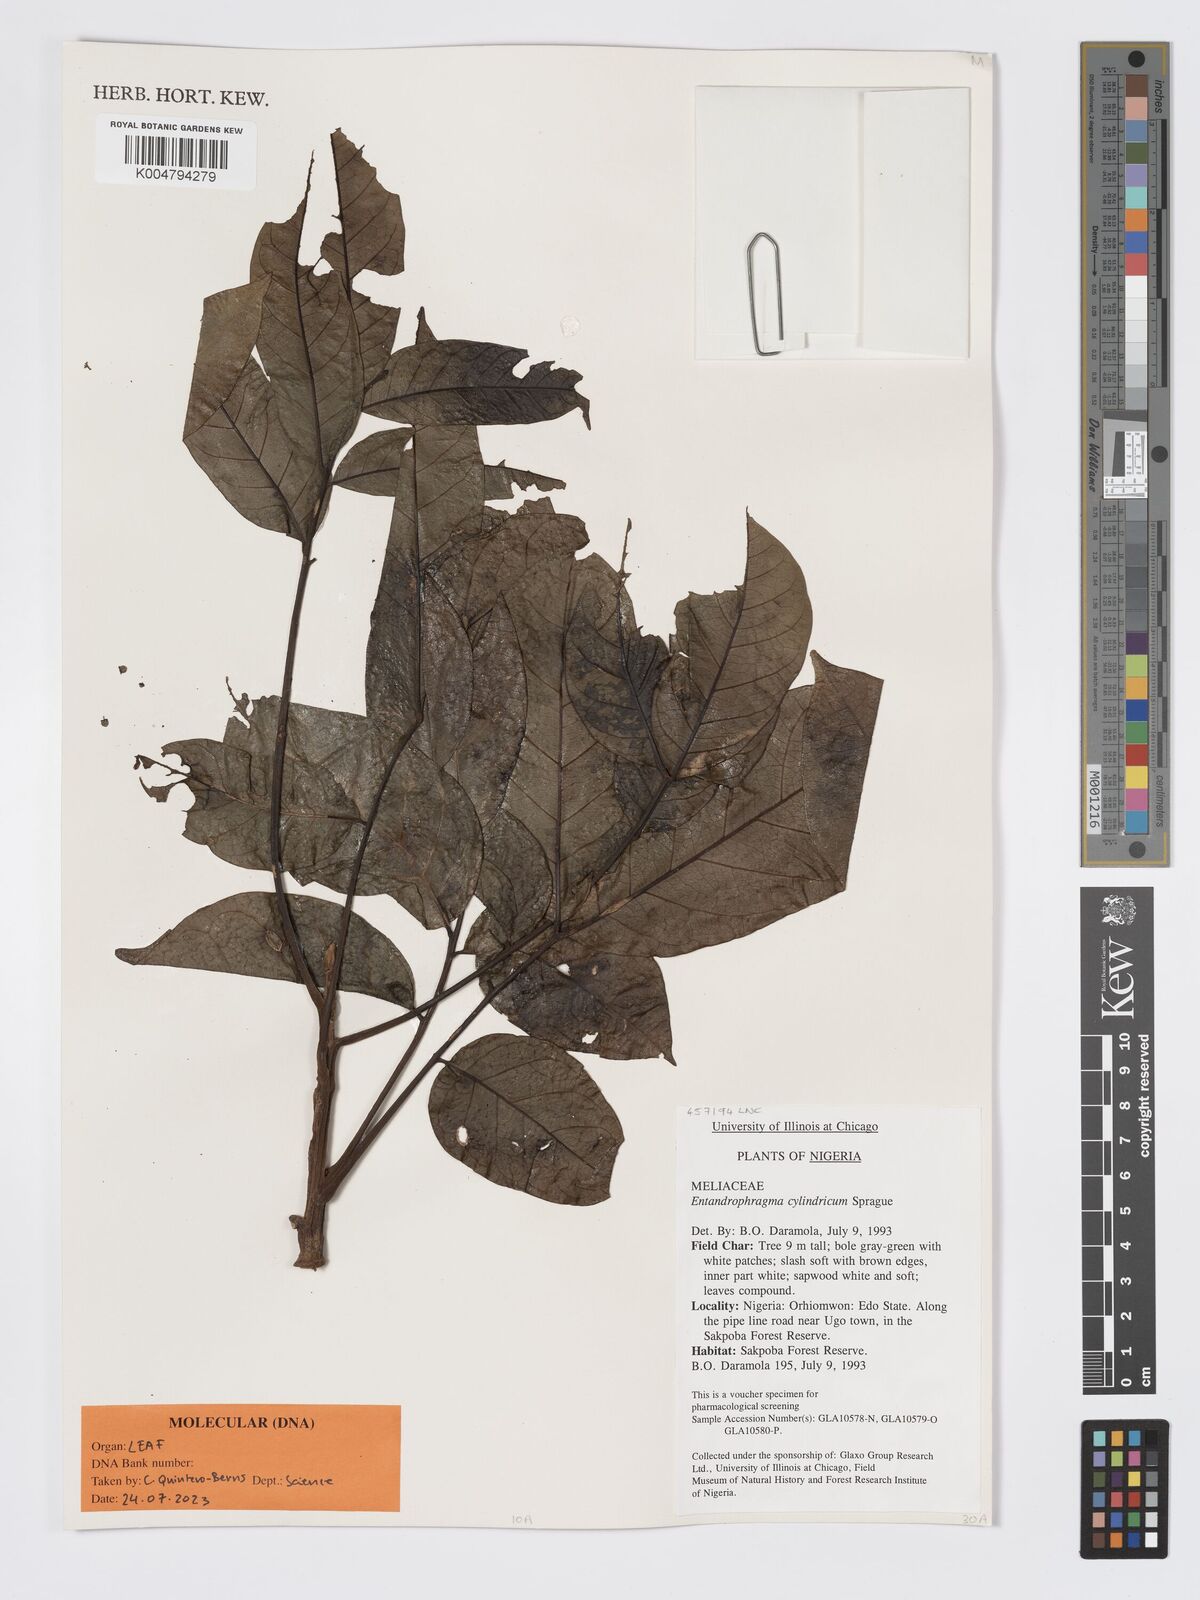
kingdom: Plantae
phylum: Tracheophyta
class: Magnoliopsida
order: Sapindales
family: Meliaceae
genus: Entandrophragma
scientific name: Entandrophragma cylindricum
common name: Sapele
